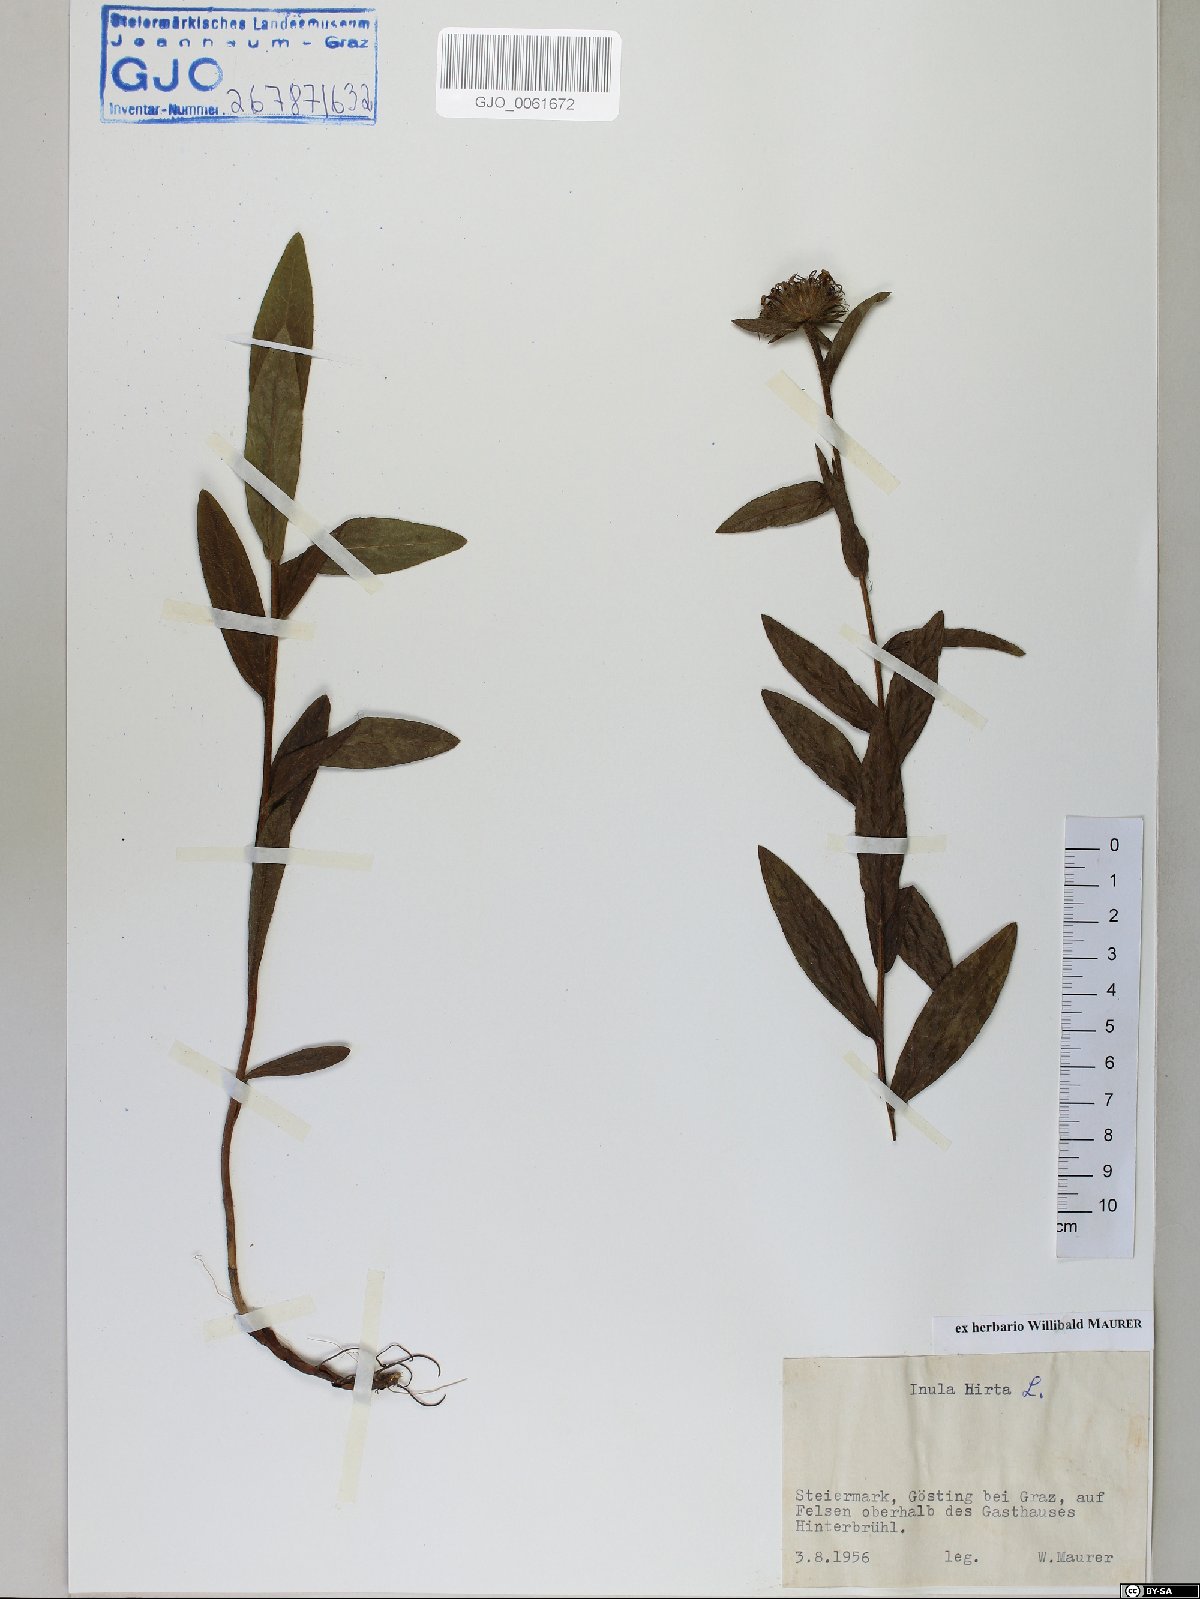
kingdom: Plantae
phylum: Tracheophyta
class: Magnoliopsida
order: Asterales
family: Asteraceae
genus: Pentanema
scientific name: Pentanema hirtum
